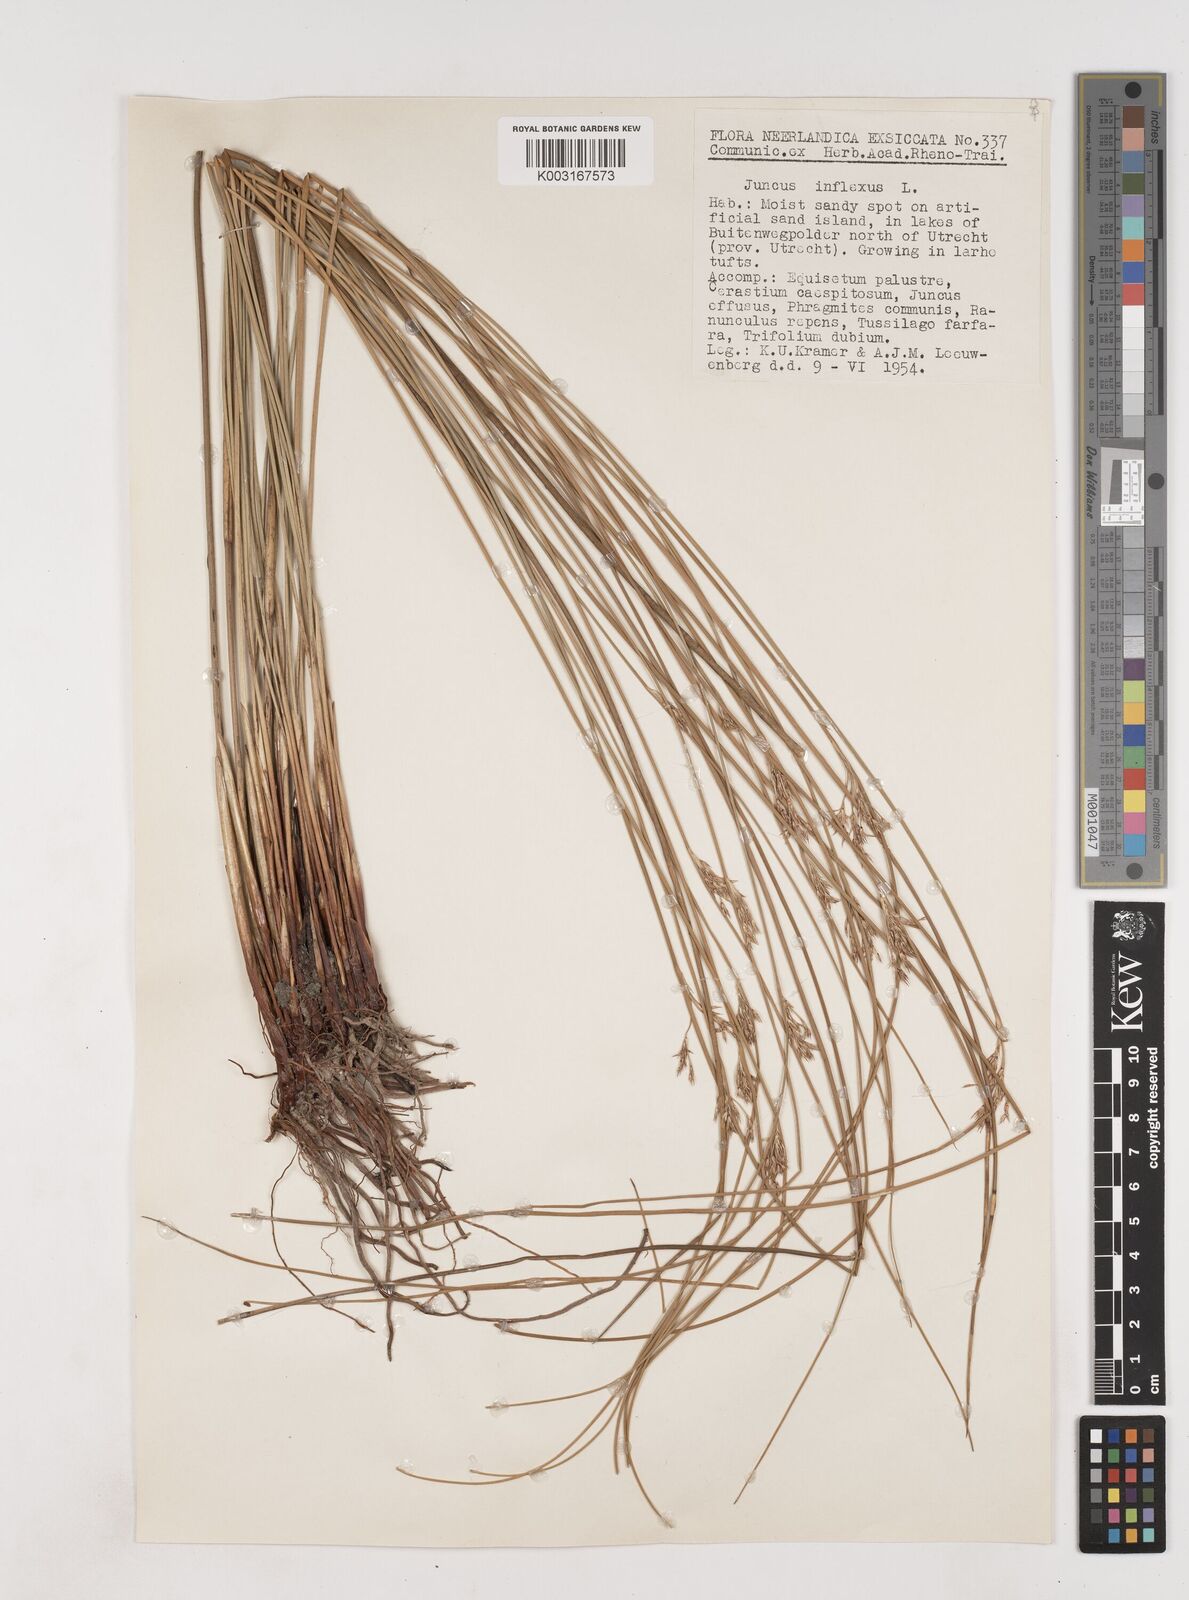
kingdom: Plantae
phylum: Tracheophyta
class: Liliopsida
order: Poales
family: Juncaceae
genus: Juncus
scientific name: Juncus inflexus
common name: Hard rush
